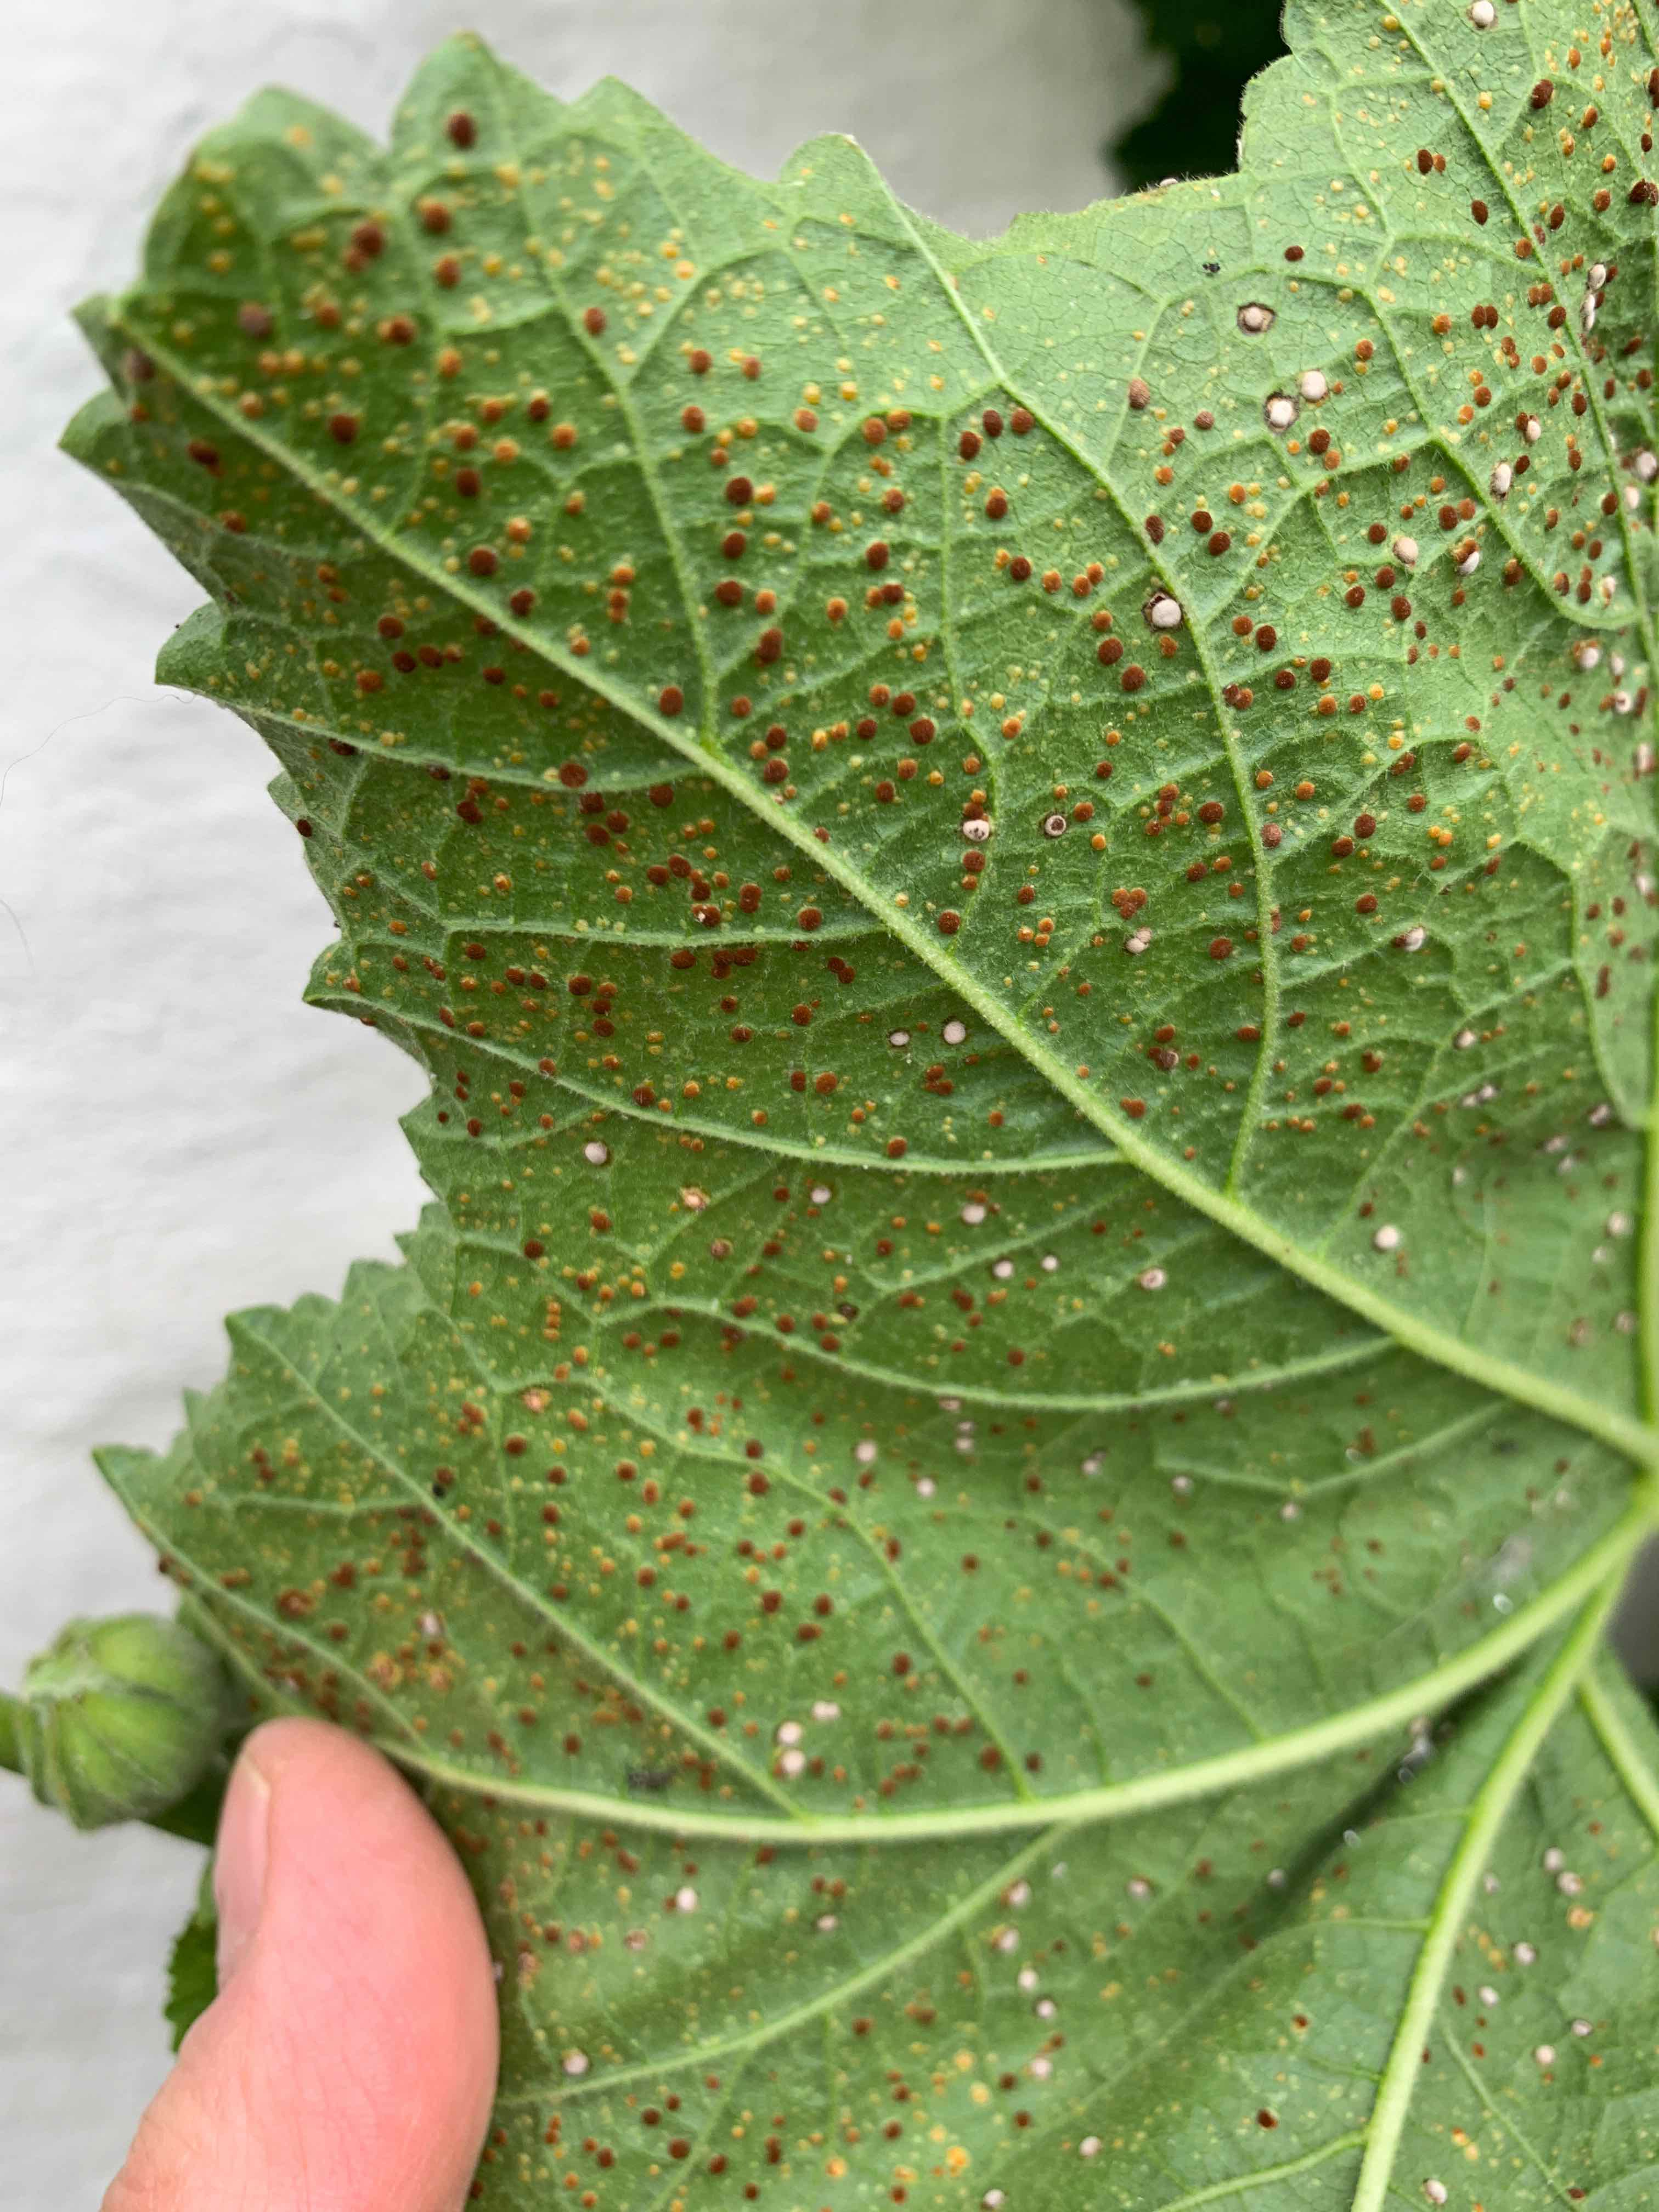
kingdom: Fungi
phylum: Basidiomycota
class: Pucciniomycetes
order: Pucciniales
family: Pucciniaceae
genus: Puccinia
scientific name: Puccinia malvacearum
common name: stokrose-tvecellerust
